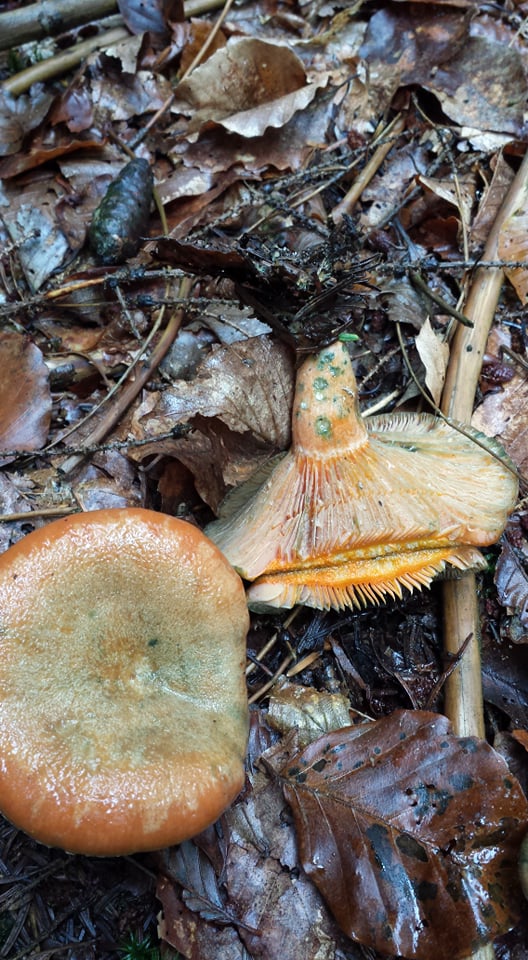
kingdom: Fungi
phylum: Basidiomycota
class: Agaricomycetes
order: Russulales
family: Russulaceae
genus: Lactarius
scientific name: Lactarius deterrimus
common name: gran-mælkehat
